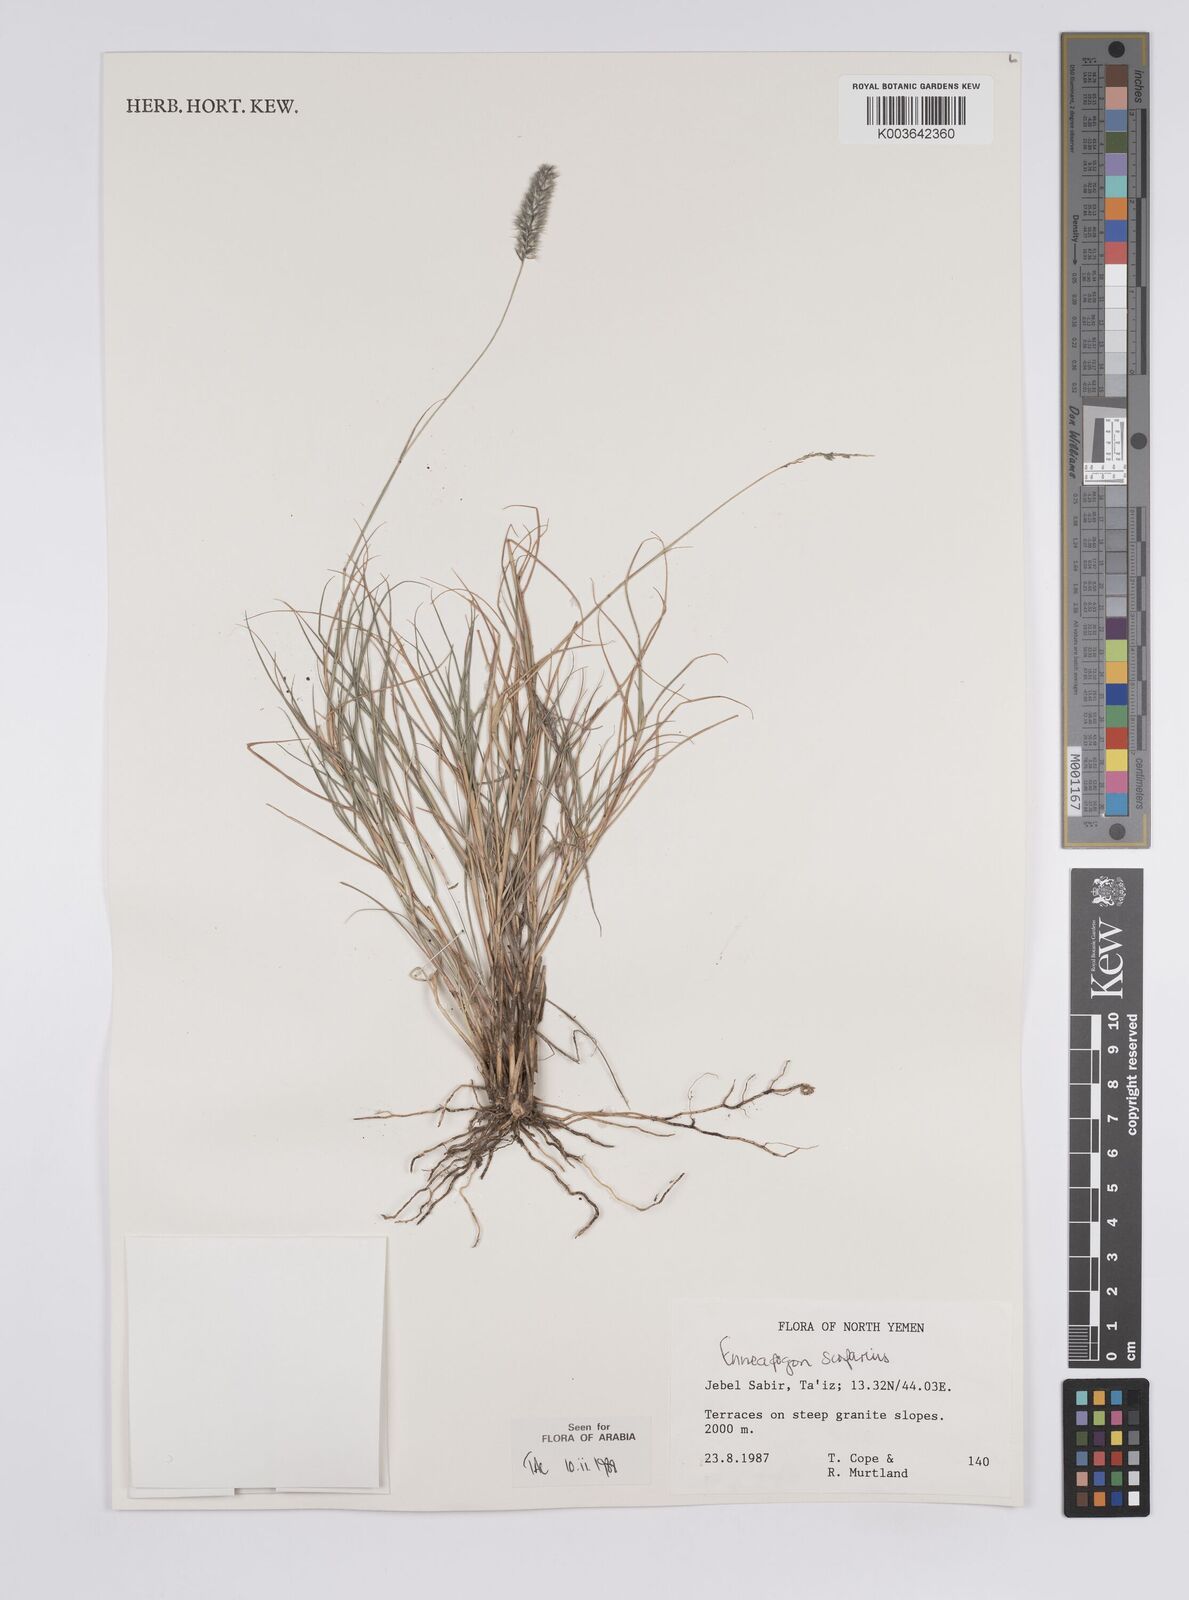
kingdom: Plantae
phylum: Tracheophyta
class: Liliopsida
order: Poales
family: Poaceae
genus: Enneapogon
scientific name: Enneapogon scoparius
